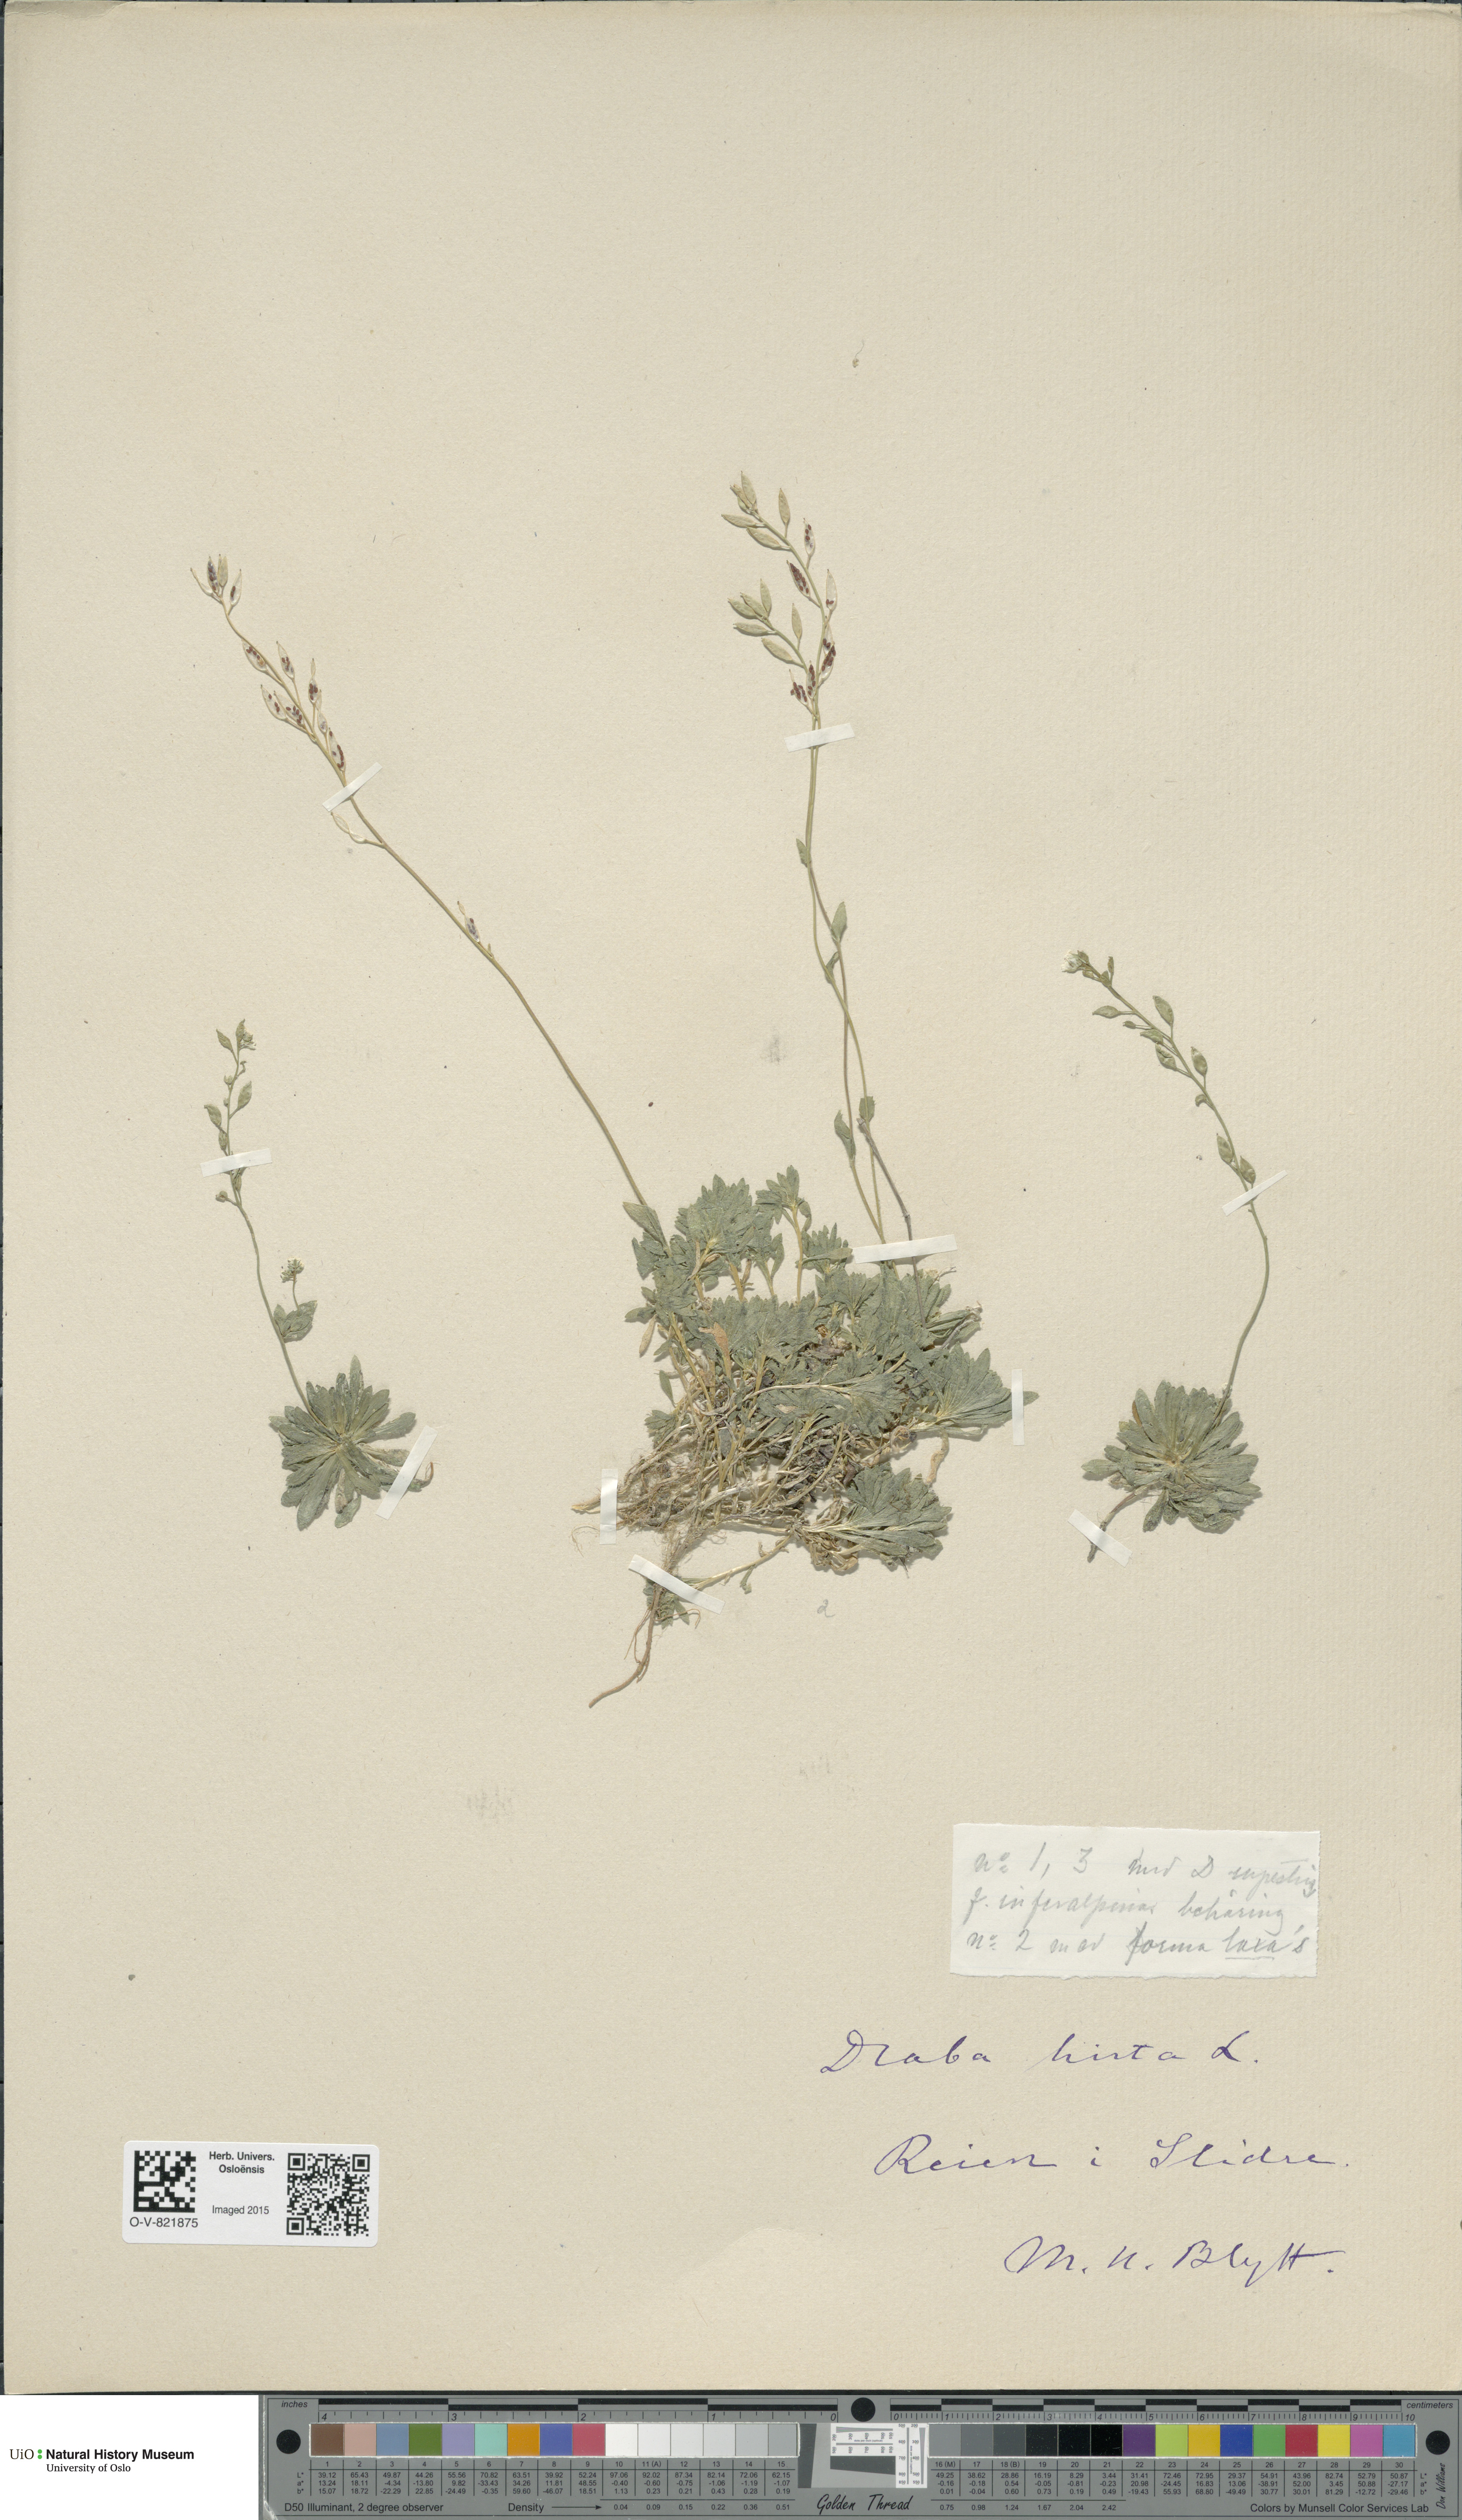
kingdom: Plantae
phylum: Tracheophyta
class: Magnoliopsida
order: Brassicales
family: Brassicaceae
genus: Draba
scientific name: Draba norvegica
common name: Rock whitlowgrass
